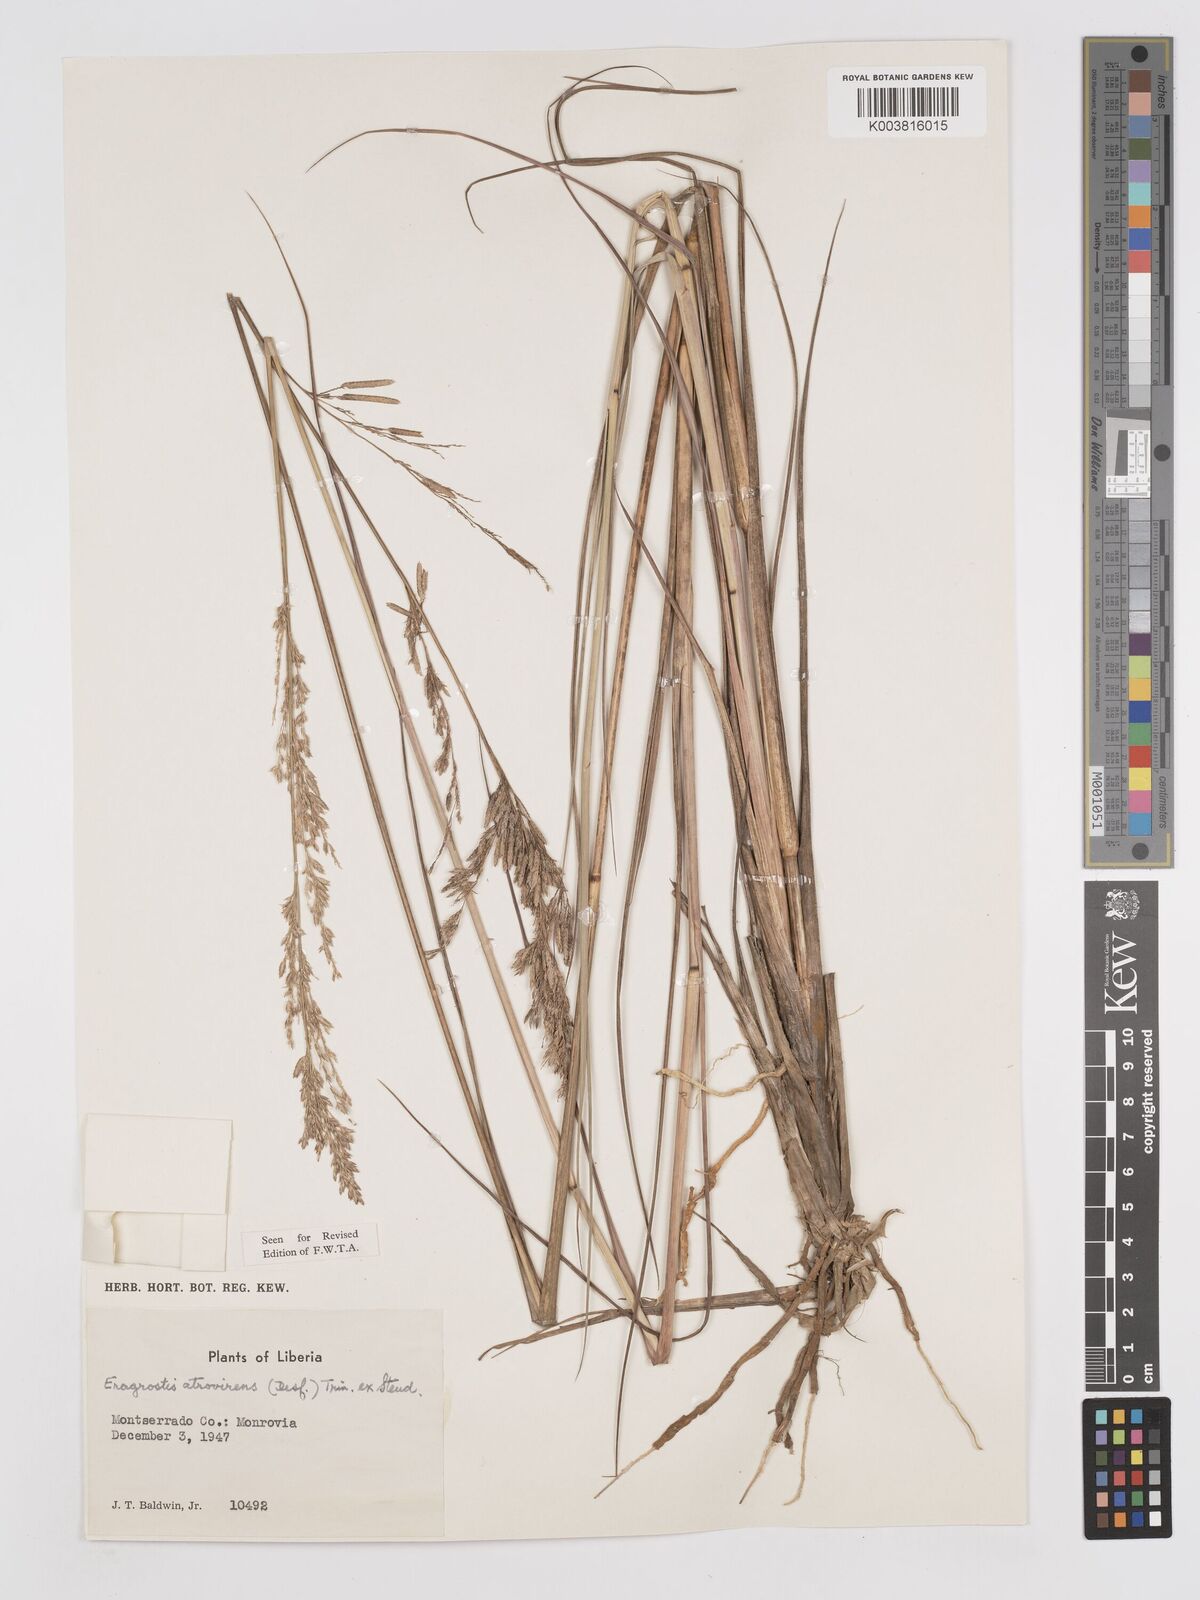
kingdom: Plantae
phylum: Tracheophyta
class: Liliopsida
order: Poales
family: Poaceae
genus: Eragrostis
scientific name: Eragrostis atrovirens
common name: Thalia lovegrass
